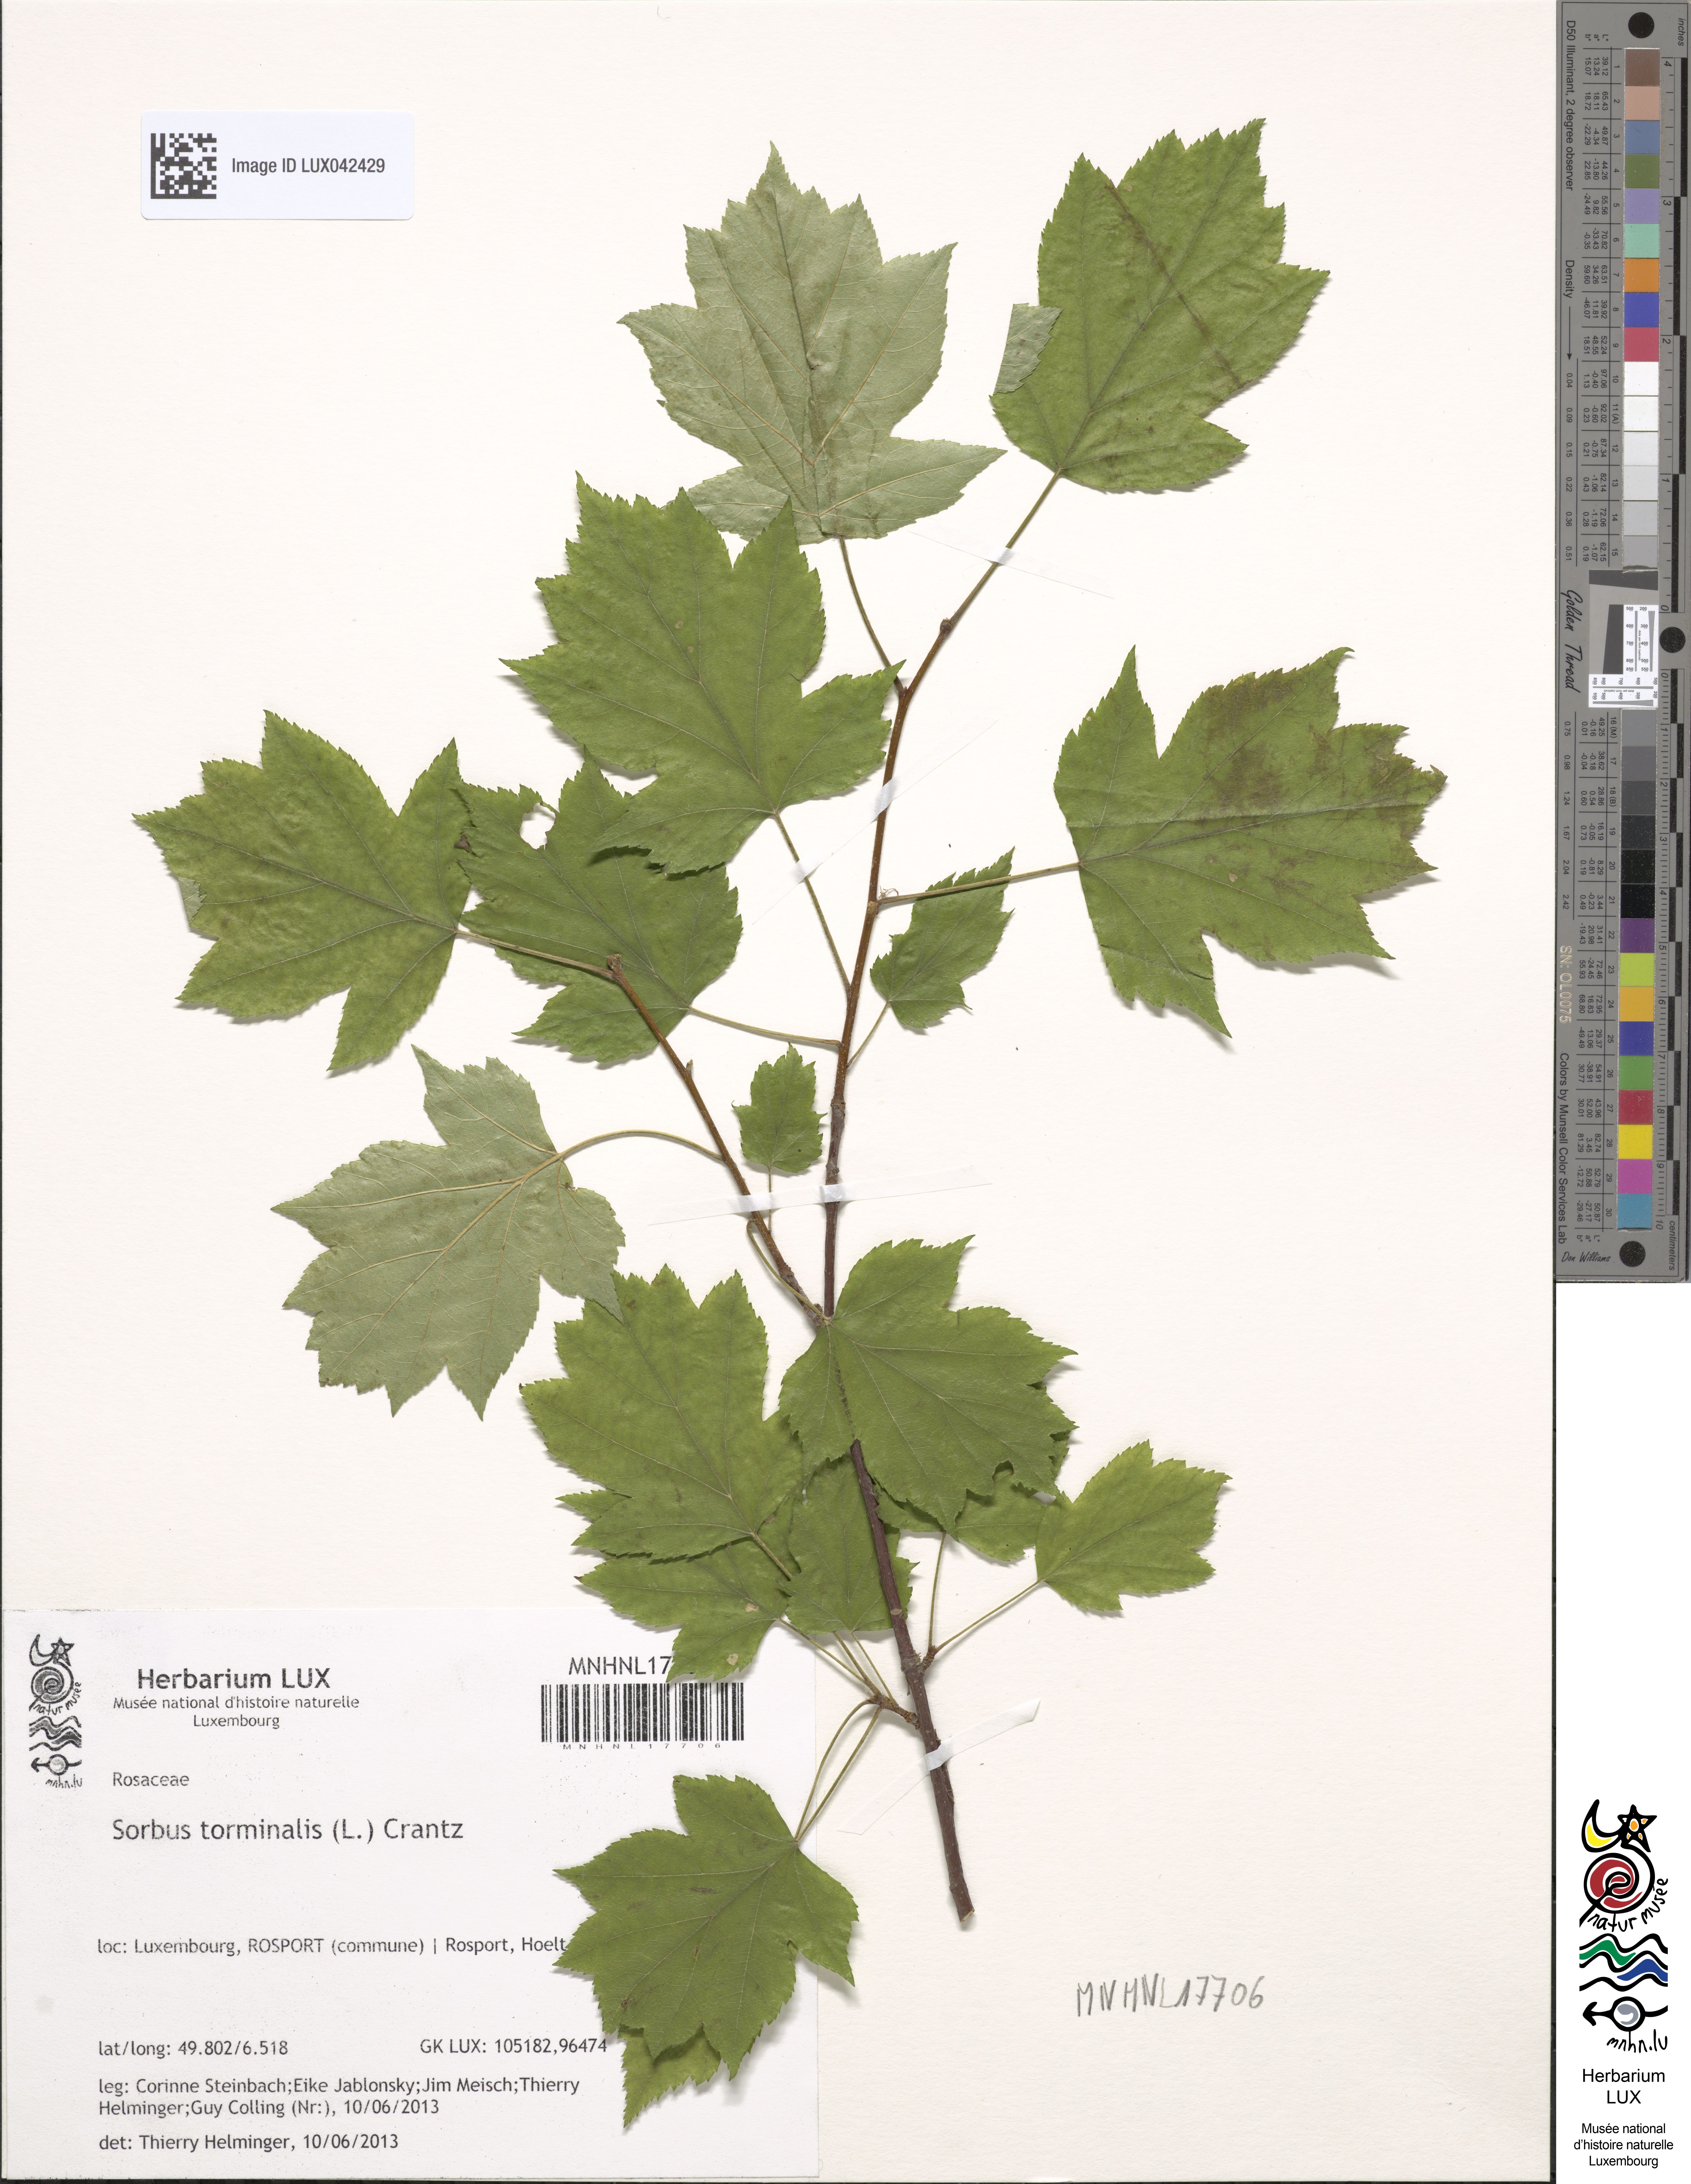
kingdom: Plantae
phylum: Tracheophyta
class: Magnoliopsida
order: Rosales
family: Rosaceae
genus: Torminalis
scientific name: Torminalis glaberrima
